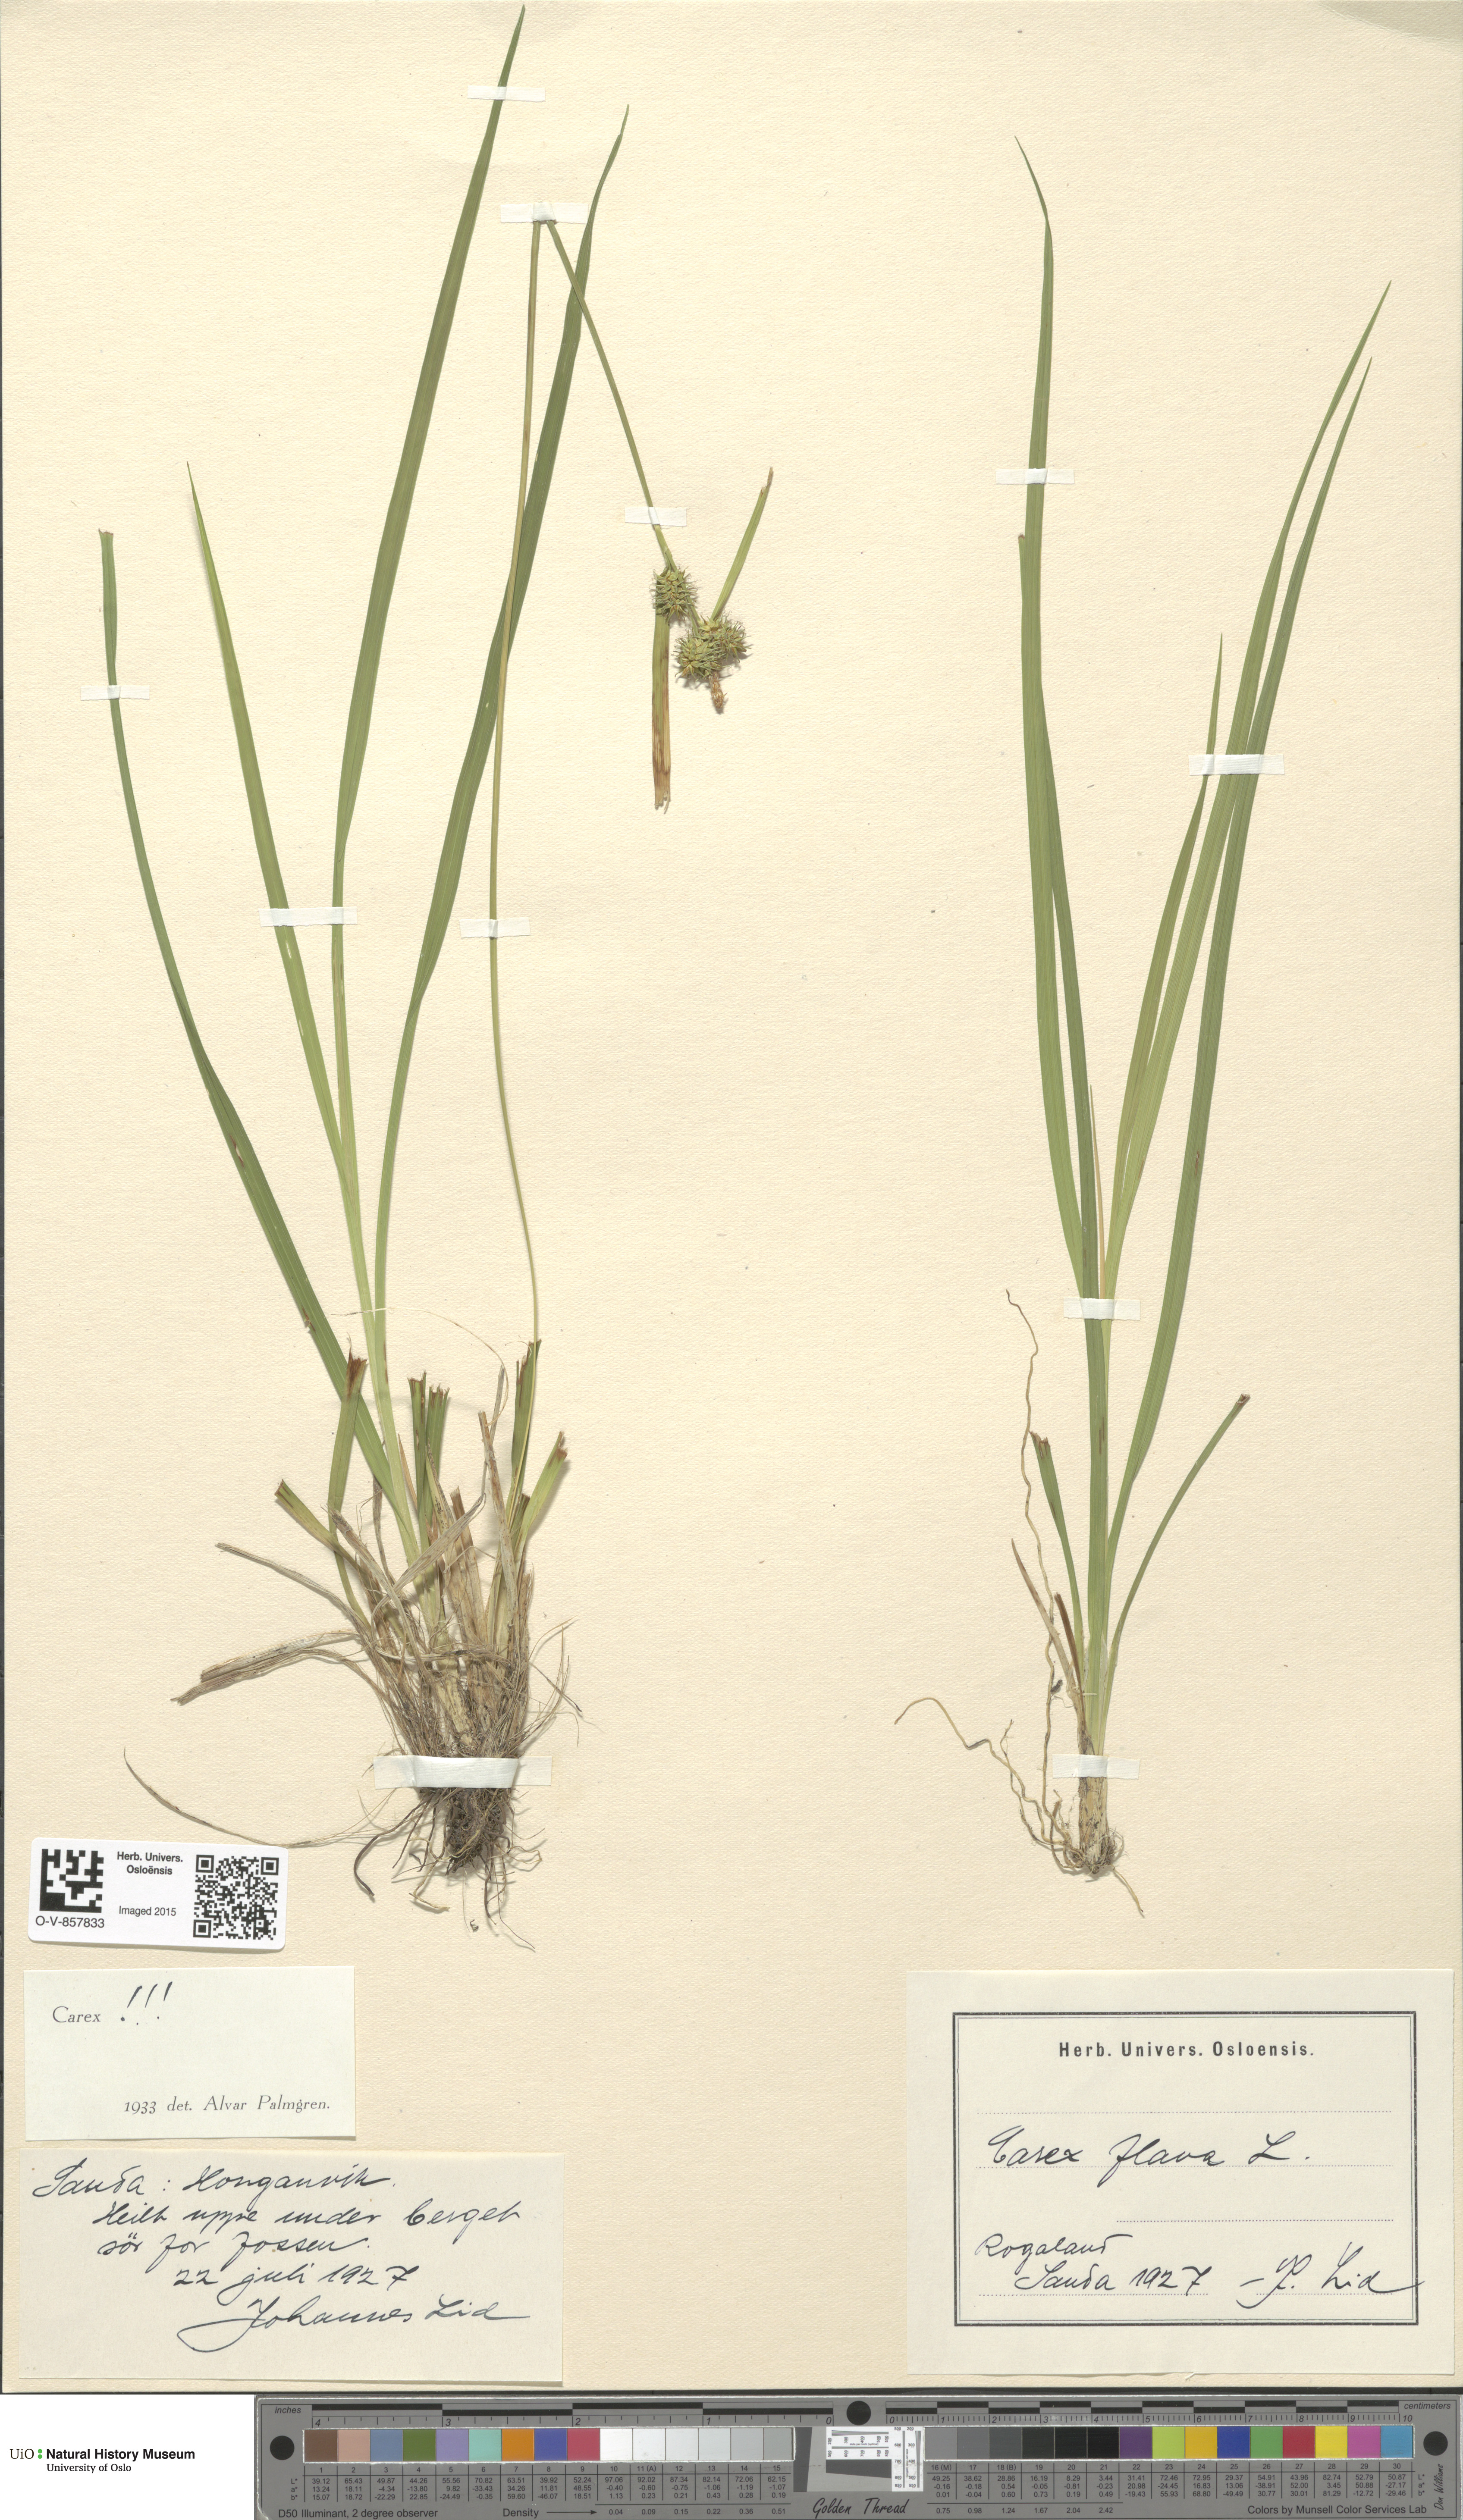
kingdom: Plantae
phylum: Tracheophyta
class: Liliopsida
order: Poales
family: Cyperaceae
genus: Carex
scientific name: Carex flava
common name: Large yellow-sedge
